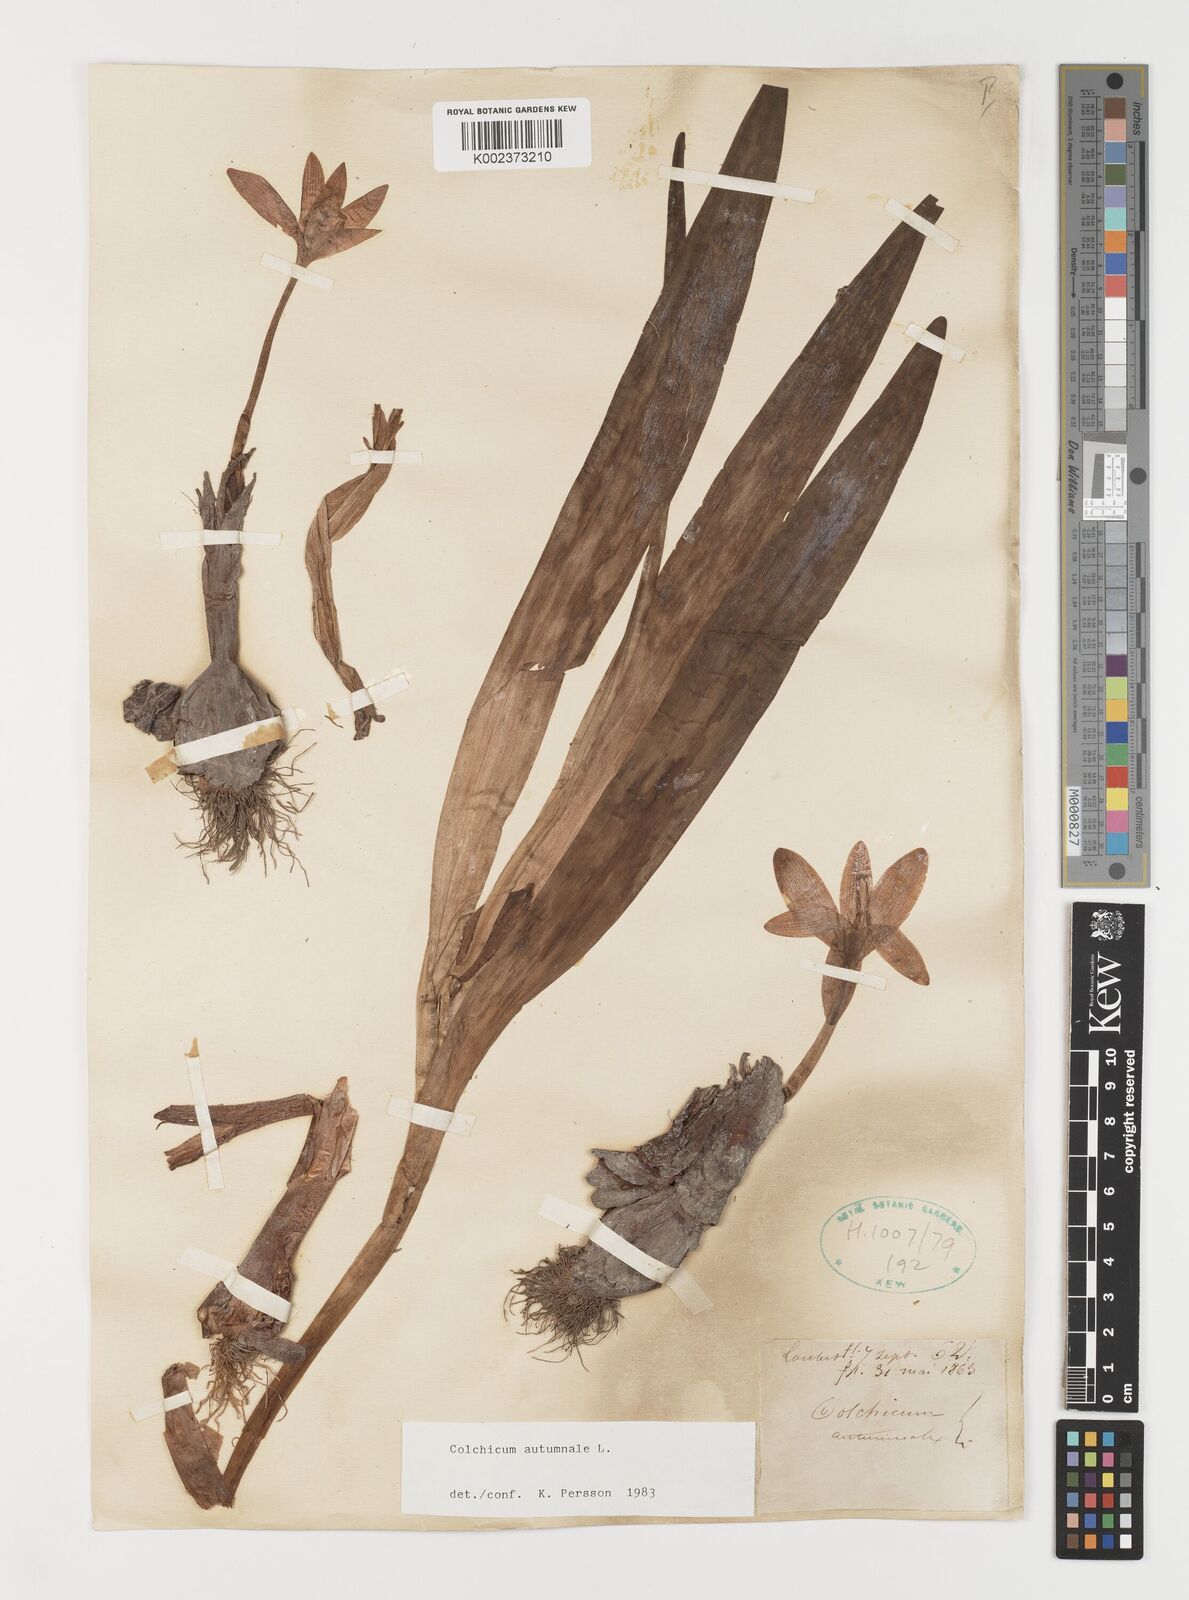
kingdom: Plantae
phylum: Tracheophyta
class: Liliopsida
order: Liliales
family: Colchicaceae
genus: Colchicum
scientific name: Colchicum autumnale
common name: Autumn crocus
